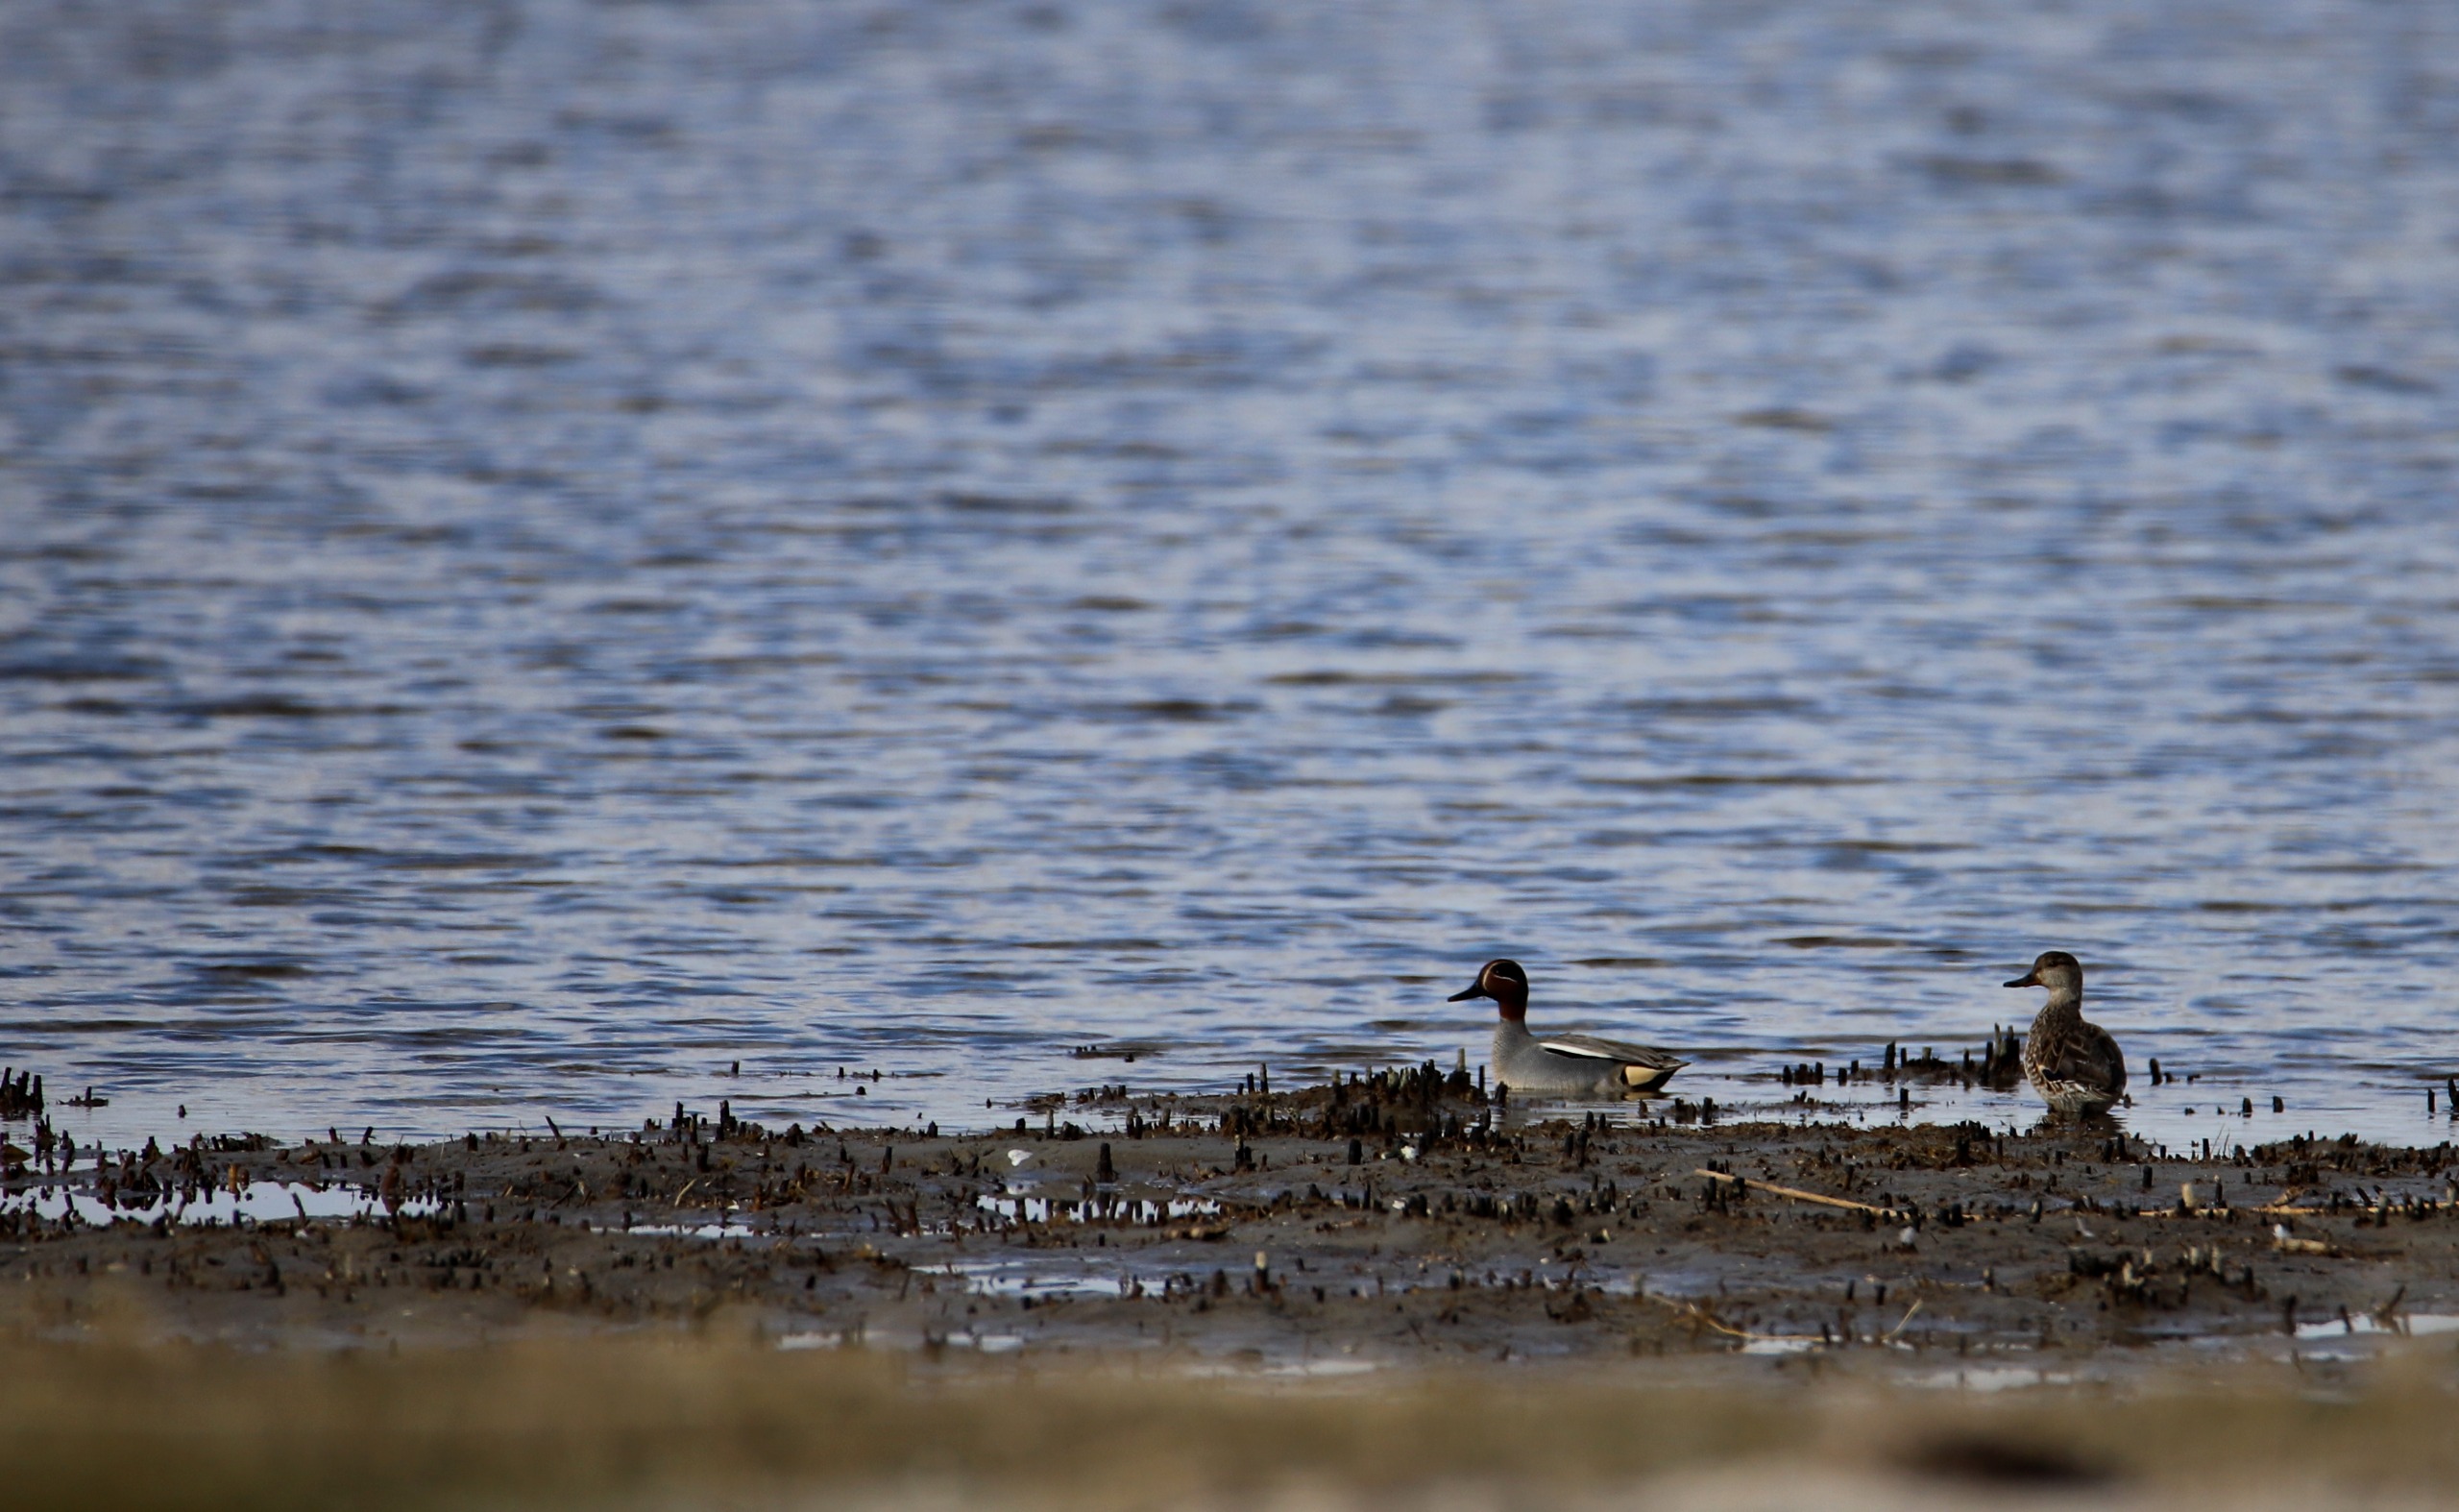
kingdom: Animalia
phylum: Chordata
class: Aves
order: Anseriformes
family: Anatidae
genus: Anas
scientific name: Anas crecca
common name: Krikand
